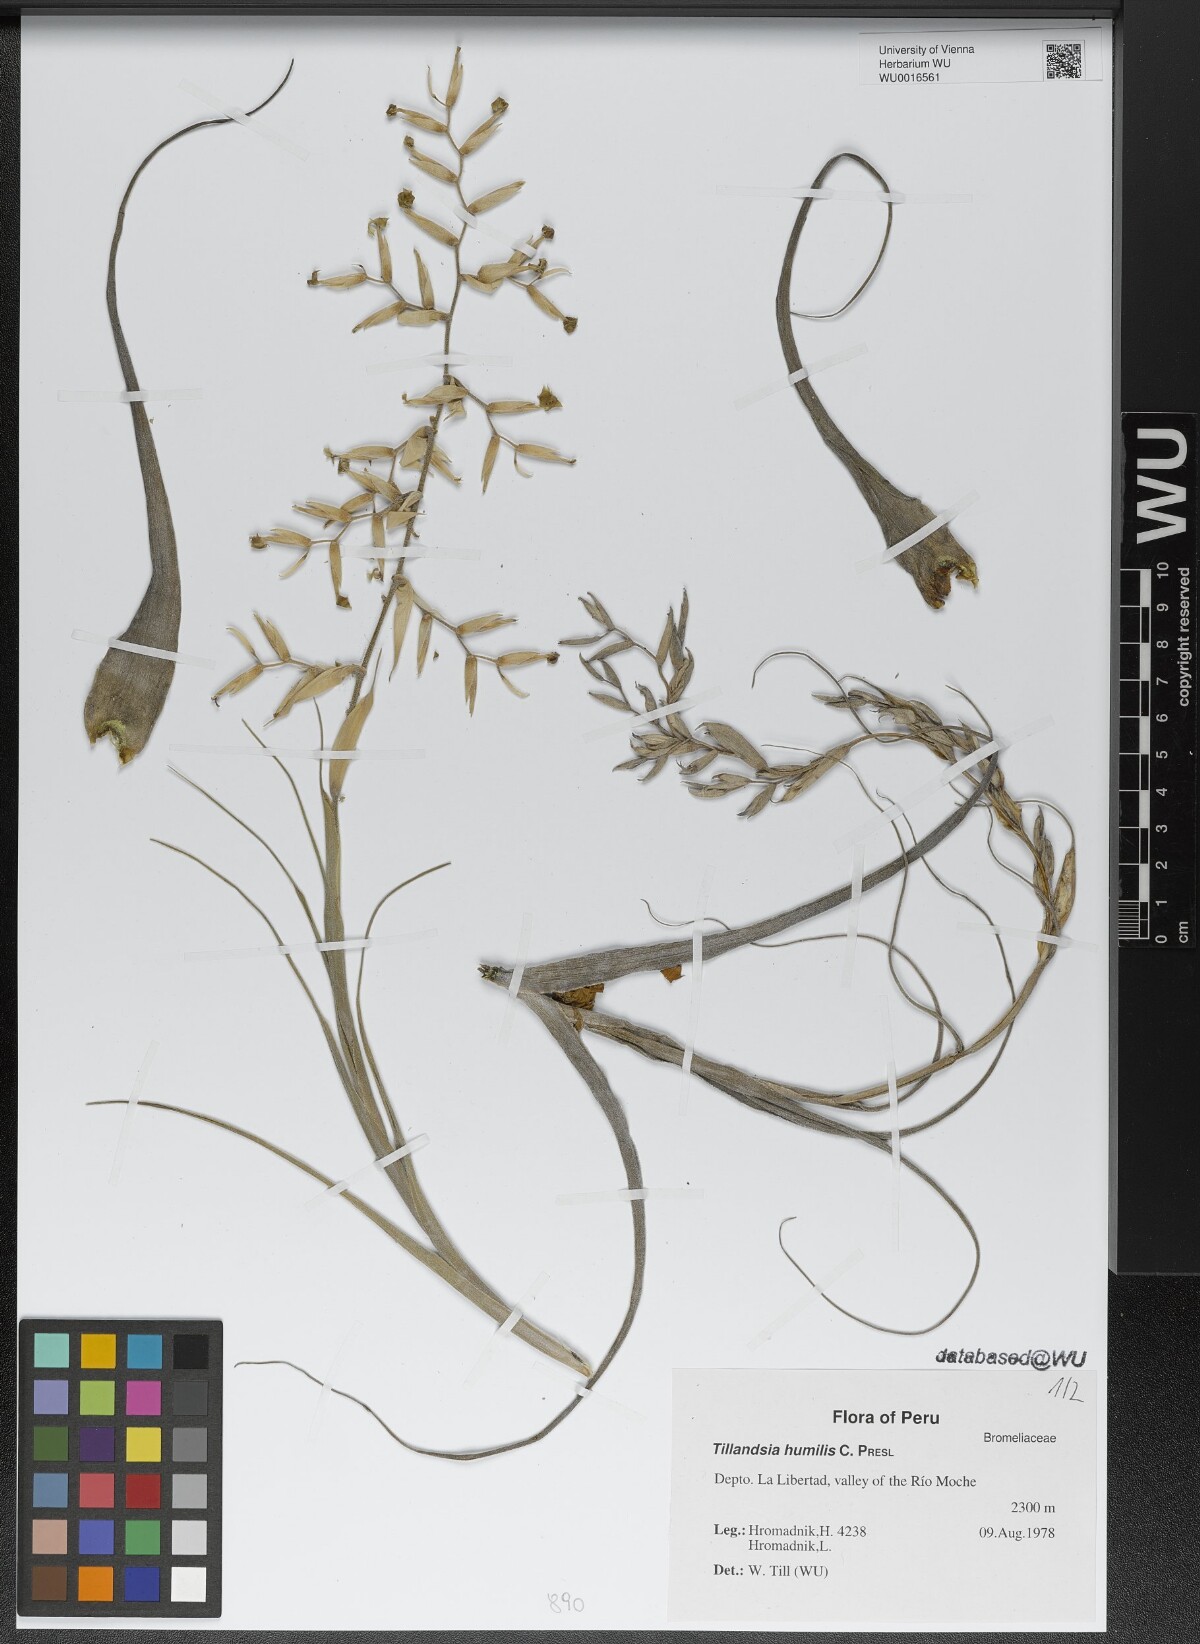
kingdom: Plantae
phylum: Tracheophyta
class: Liliopsida
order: Poales
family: Bromeliaceae
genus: Tillandsia
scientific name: Tillandsia humilis
